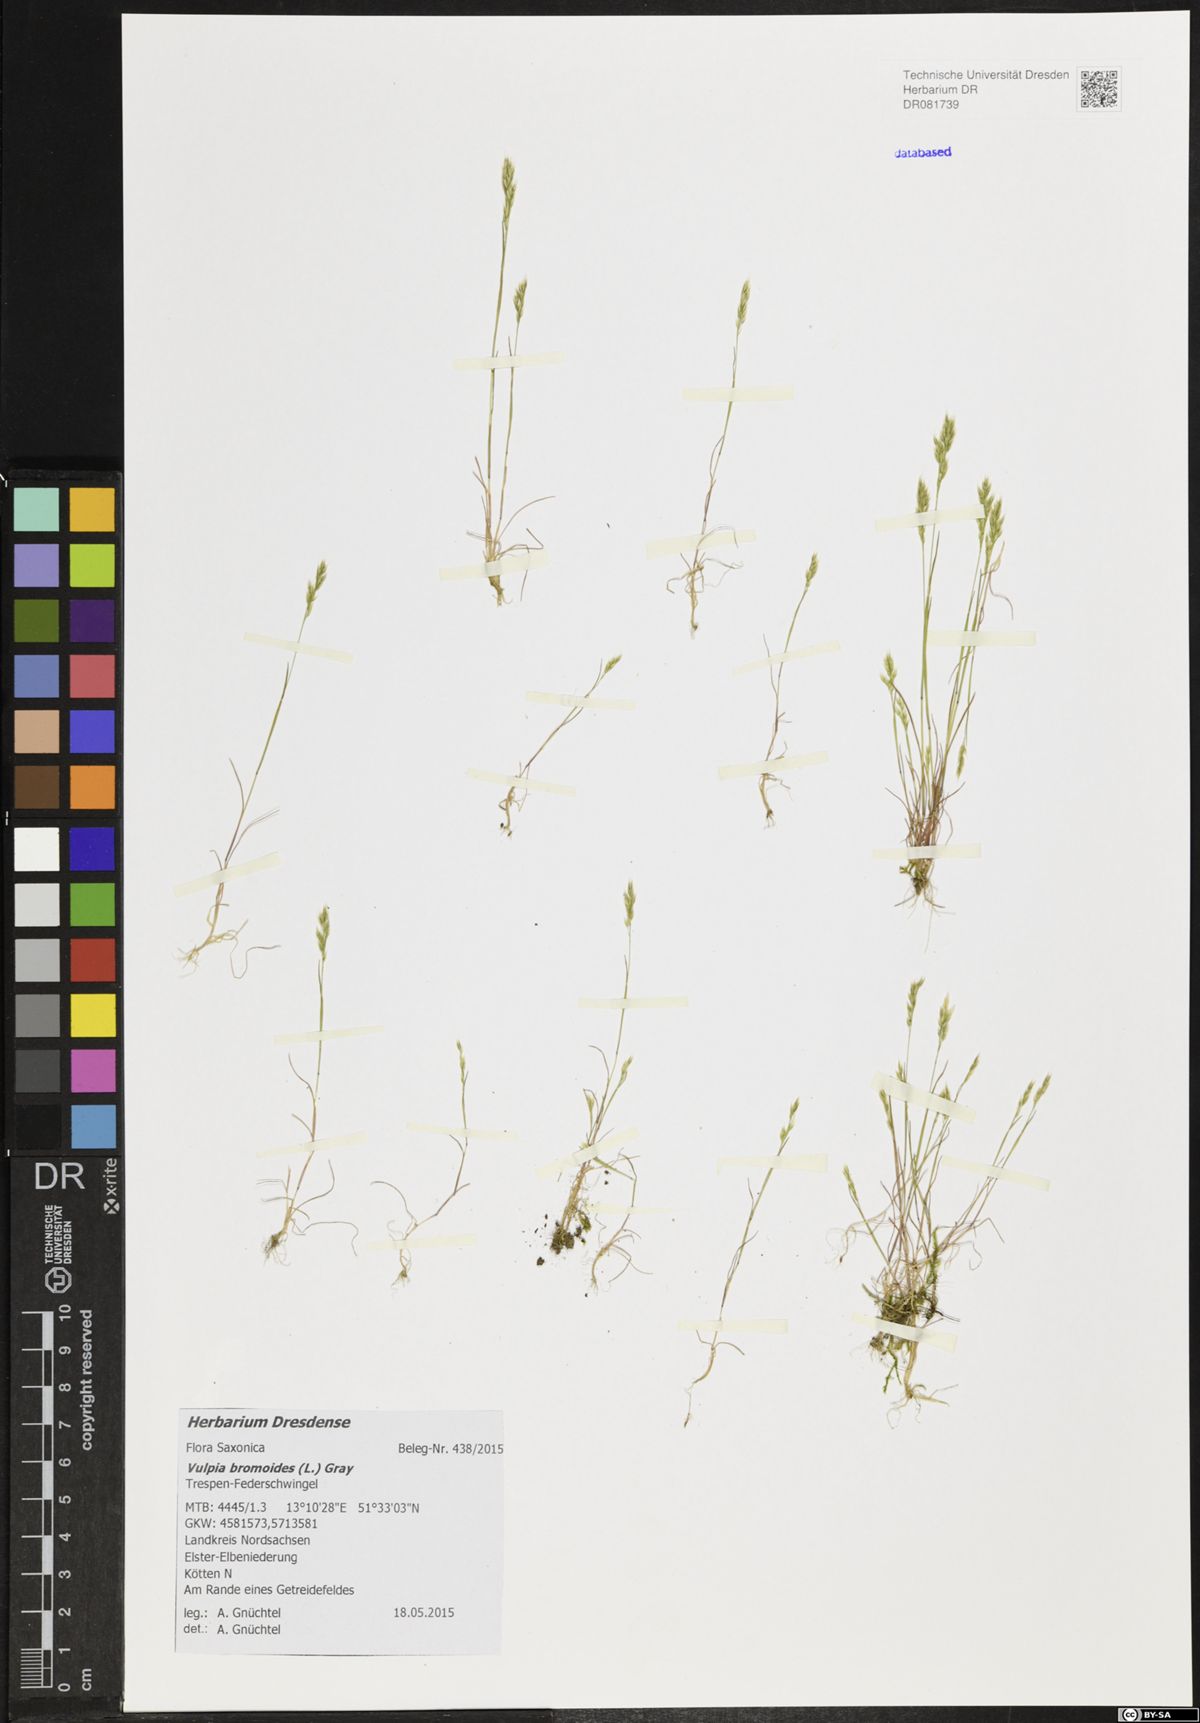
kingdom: Plantae
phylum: Tracheophyta
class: Liliopsida
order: Poales
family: Poaceae
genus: Festuca
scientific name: Festuca bromoides
